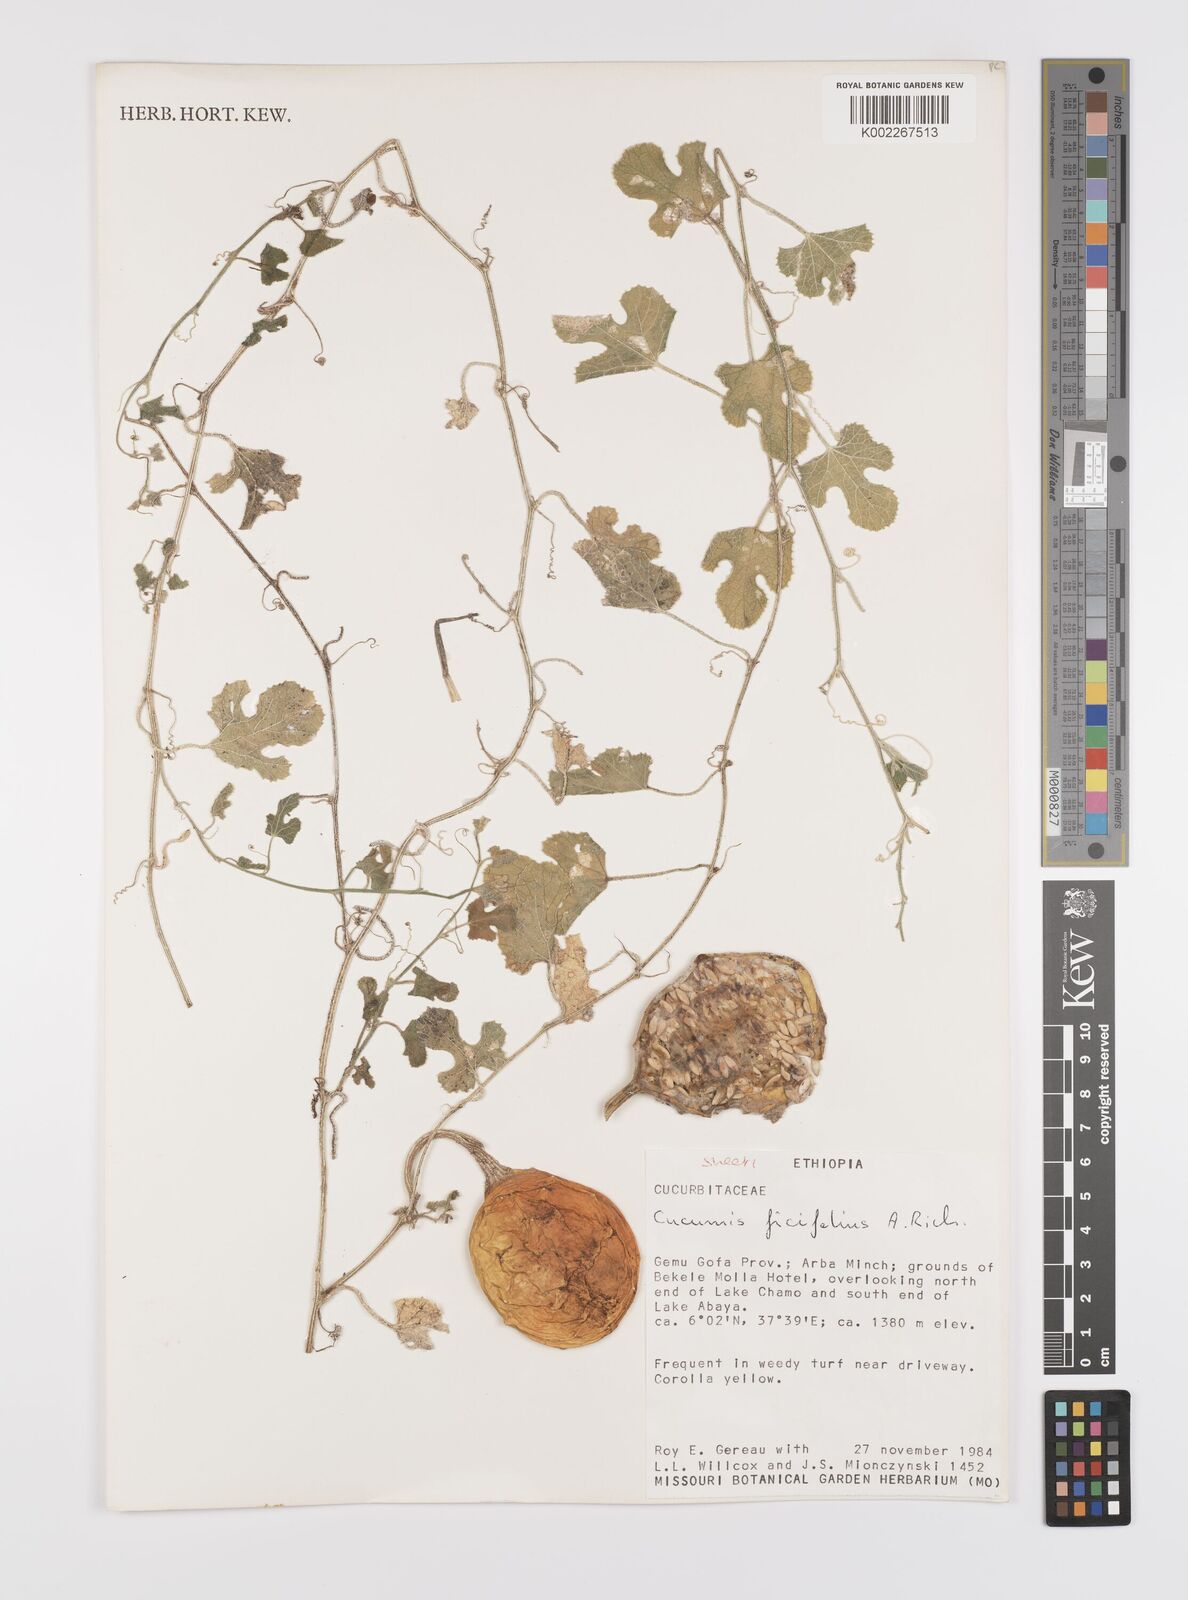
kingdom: Plantae
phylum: Tracheophyta
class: Magnoliopsida
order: Cucurbitales
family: Cucurbitaceae
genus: Cucumis
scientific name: Cucumis pustulatus
